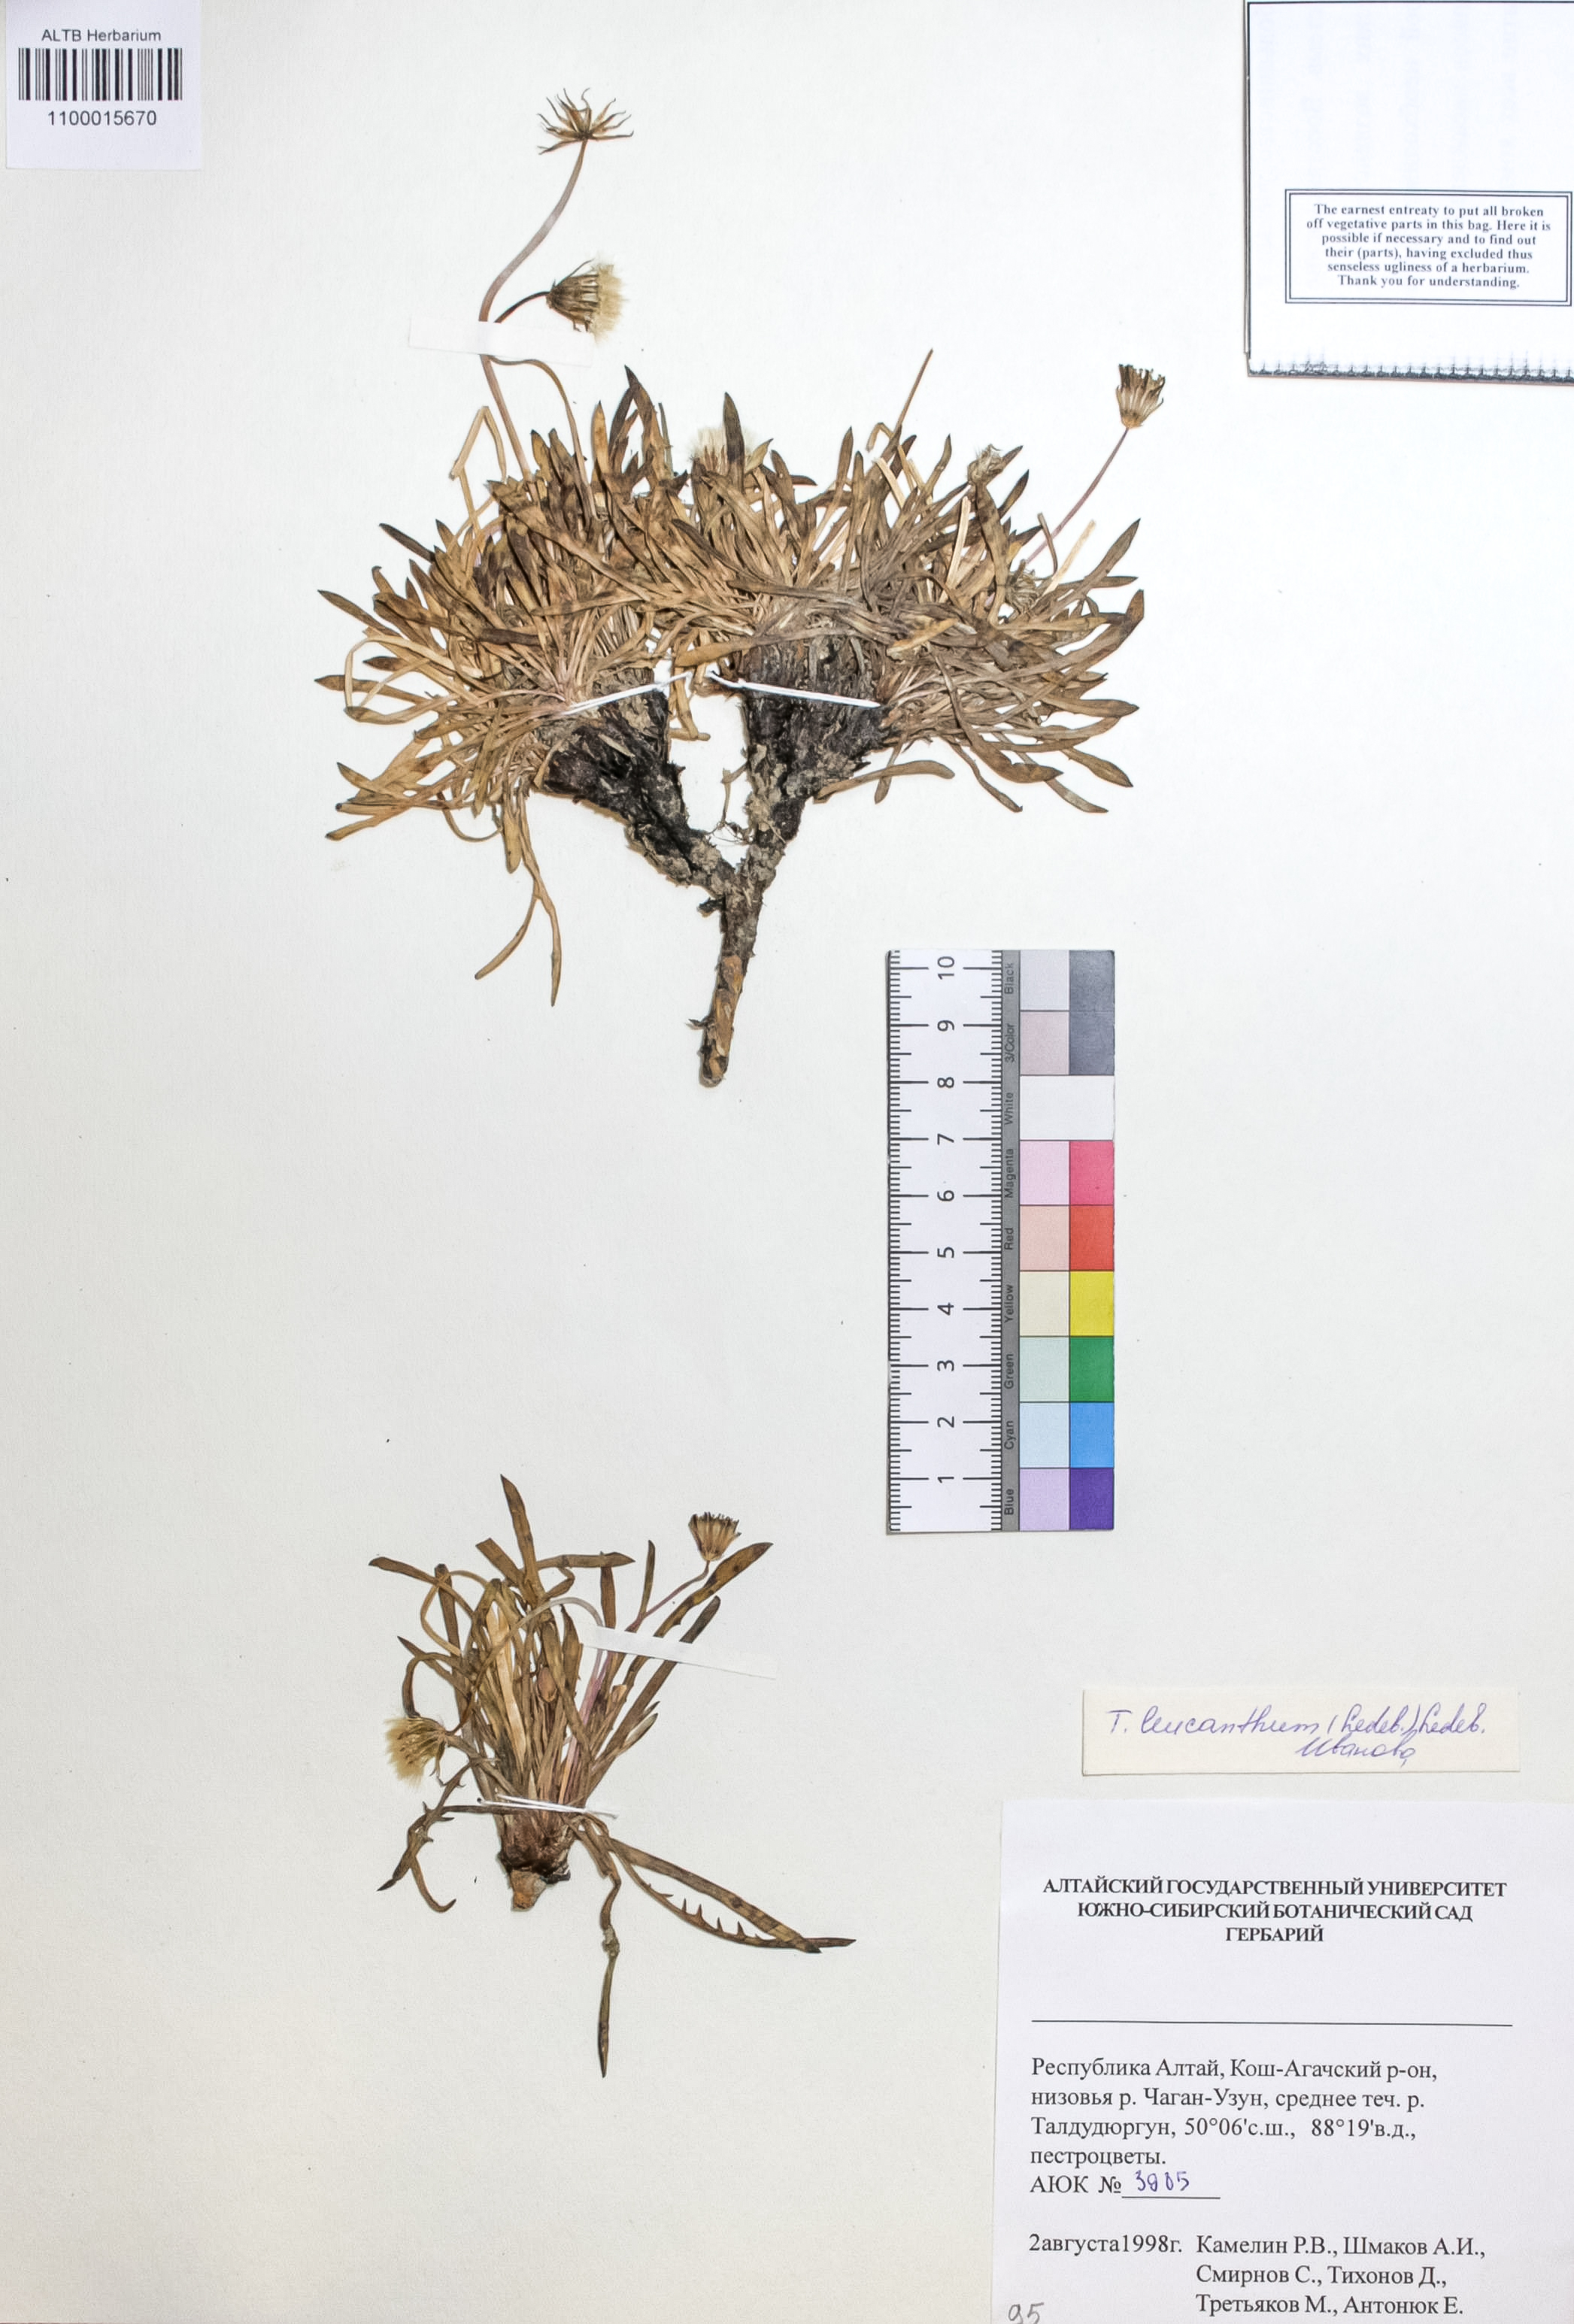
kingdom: Plantae
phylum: Tracheophyta
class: Magnoliopsida
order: Asterales
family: Asteraceae
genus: Taraxacum
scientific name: Taraxacum leucanthum
